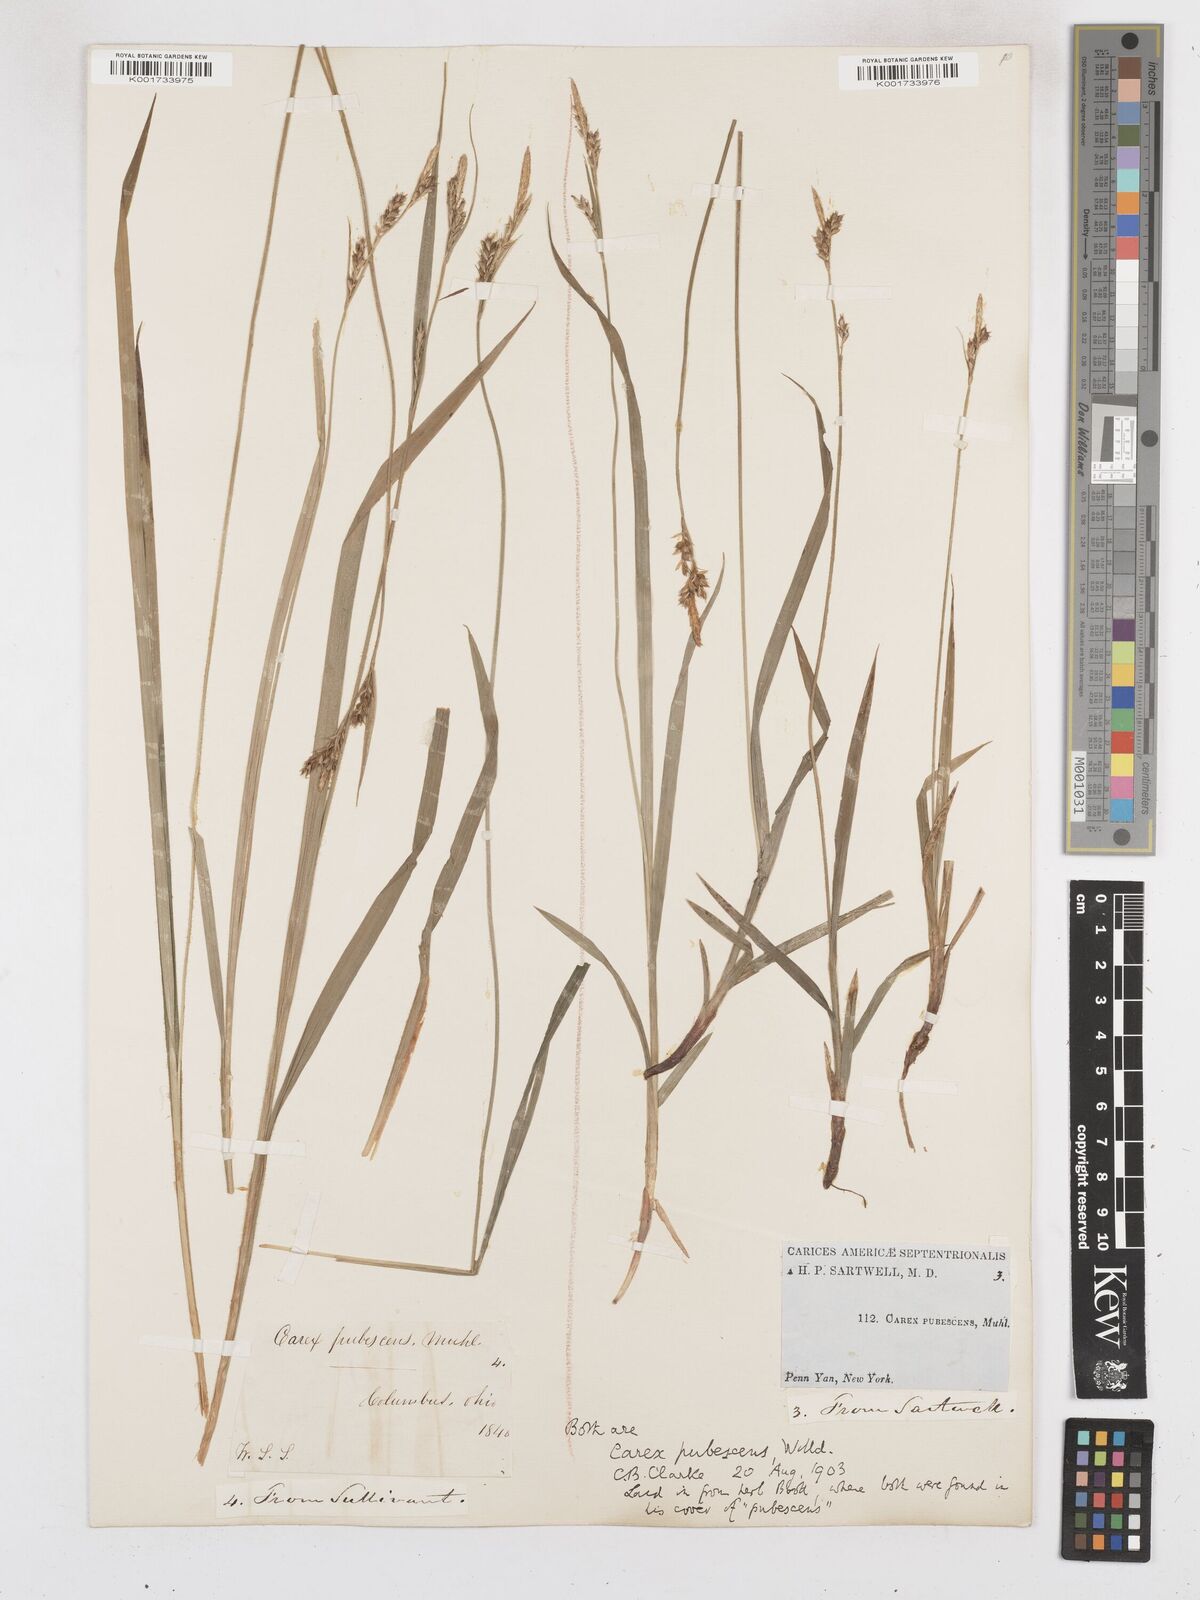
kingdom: Plantae
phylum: Tracheophyta
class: Liliopsida
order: Poales
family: Cyperaceae
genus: Carex
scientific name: Carex hirtifolia
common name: Hairy sedge
